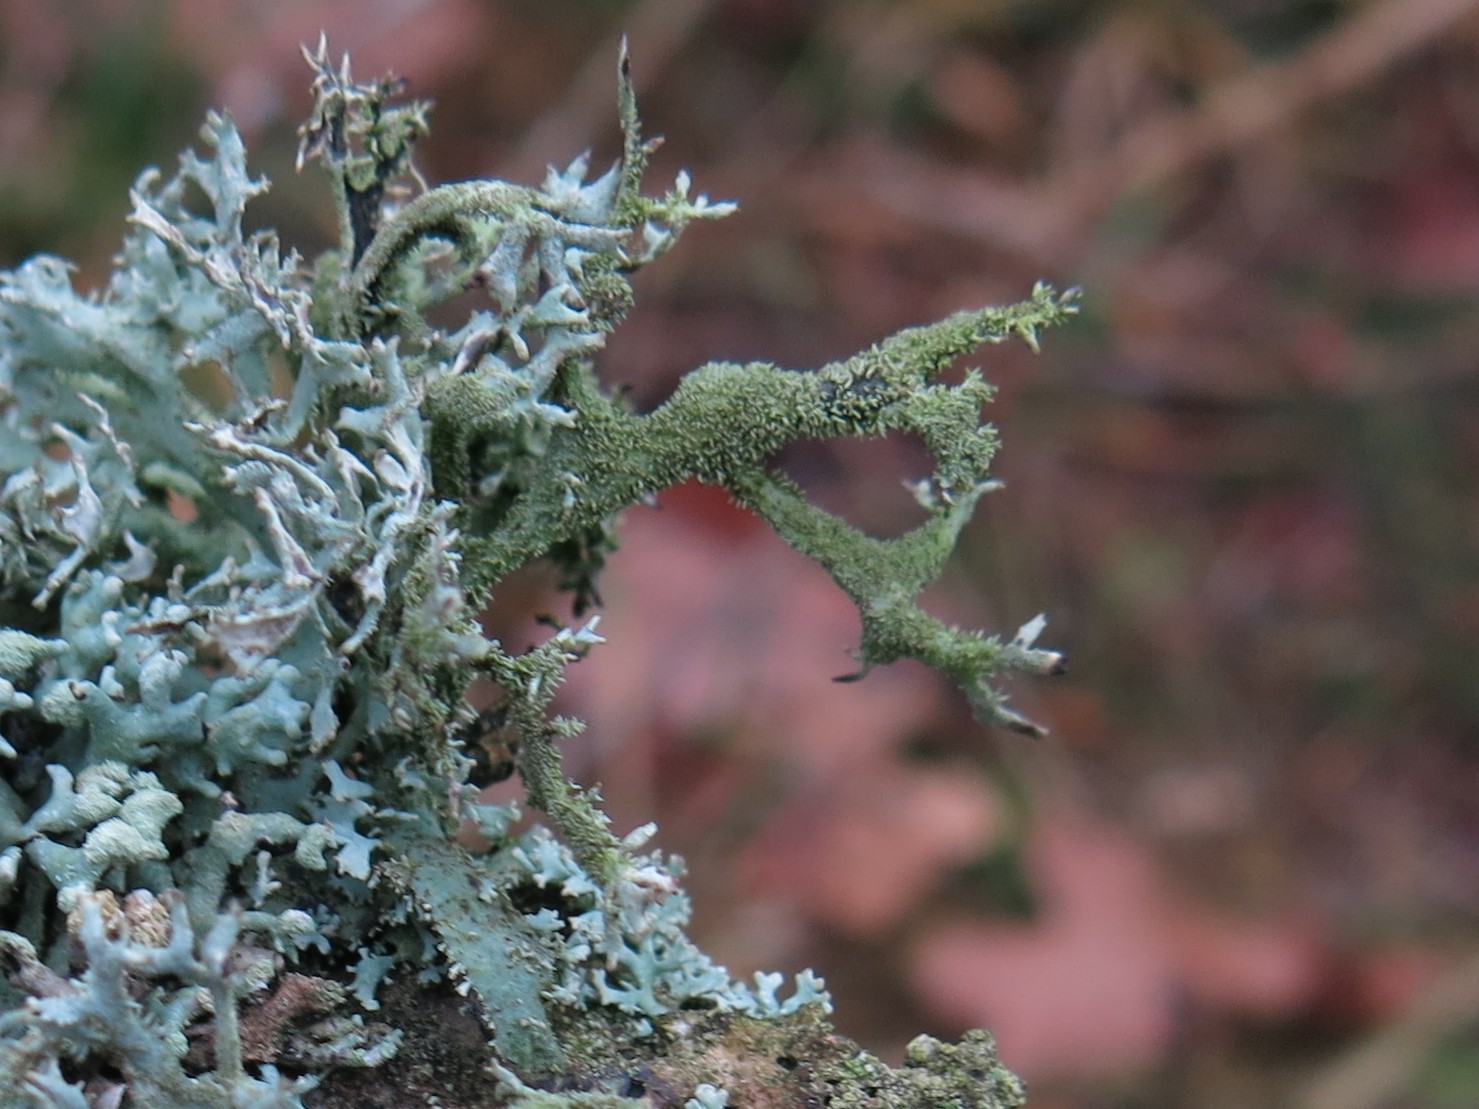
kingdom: Fungi
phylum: Ascomycota
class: Lecanoromycetes
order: Lecanorales
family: Parmeliaceae
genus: Pseudevernia
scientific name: Pseudevernia furfuracea
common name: grå fyrrelav
